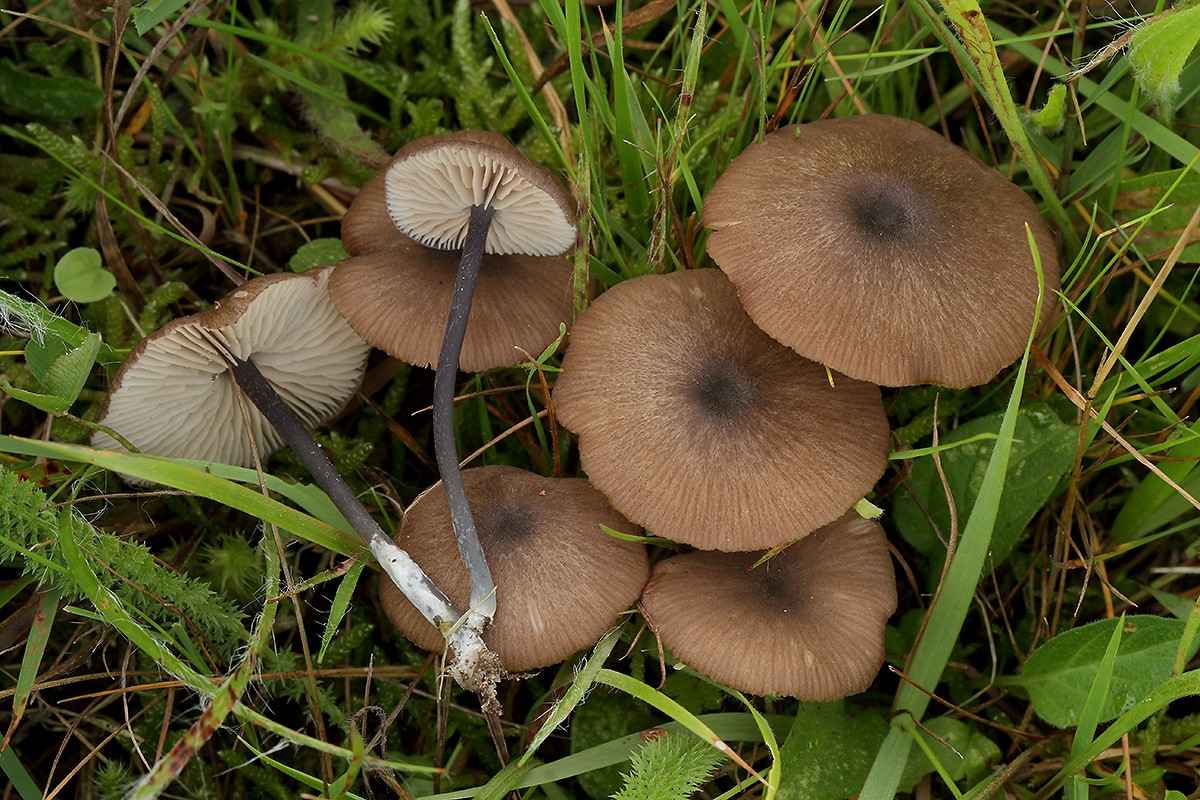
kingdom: Fungi
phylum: Basidiomycota
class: Agaricomycetes
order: Agaricales
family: Entolomataceae
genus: Entoloma
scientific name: Entoloma atrocoeruleum
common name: sortblå rødblad
